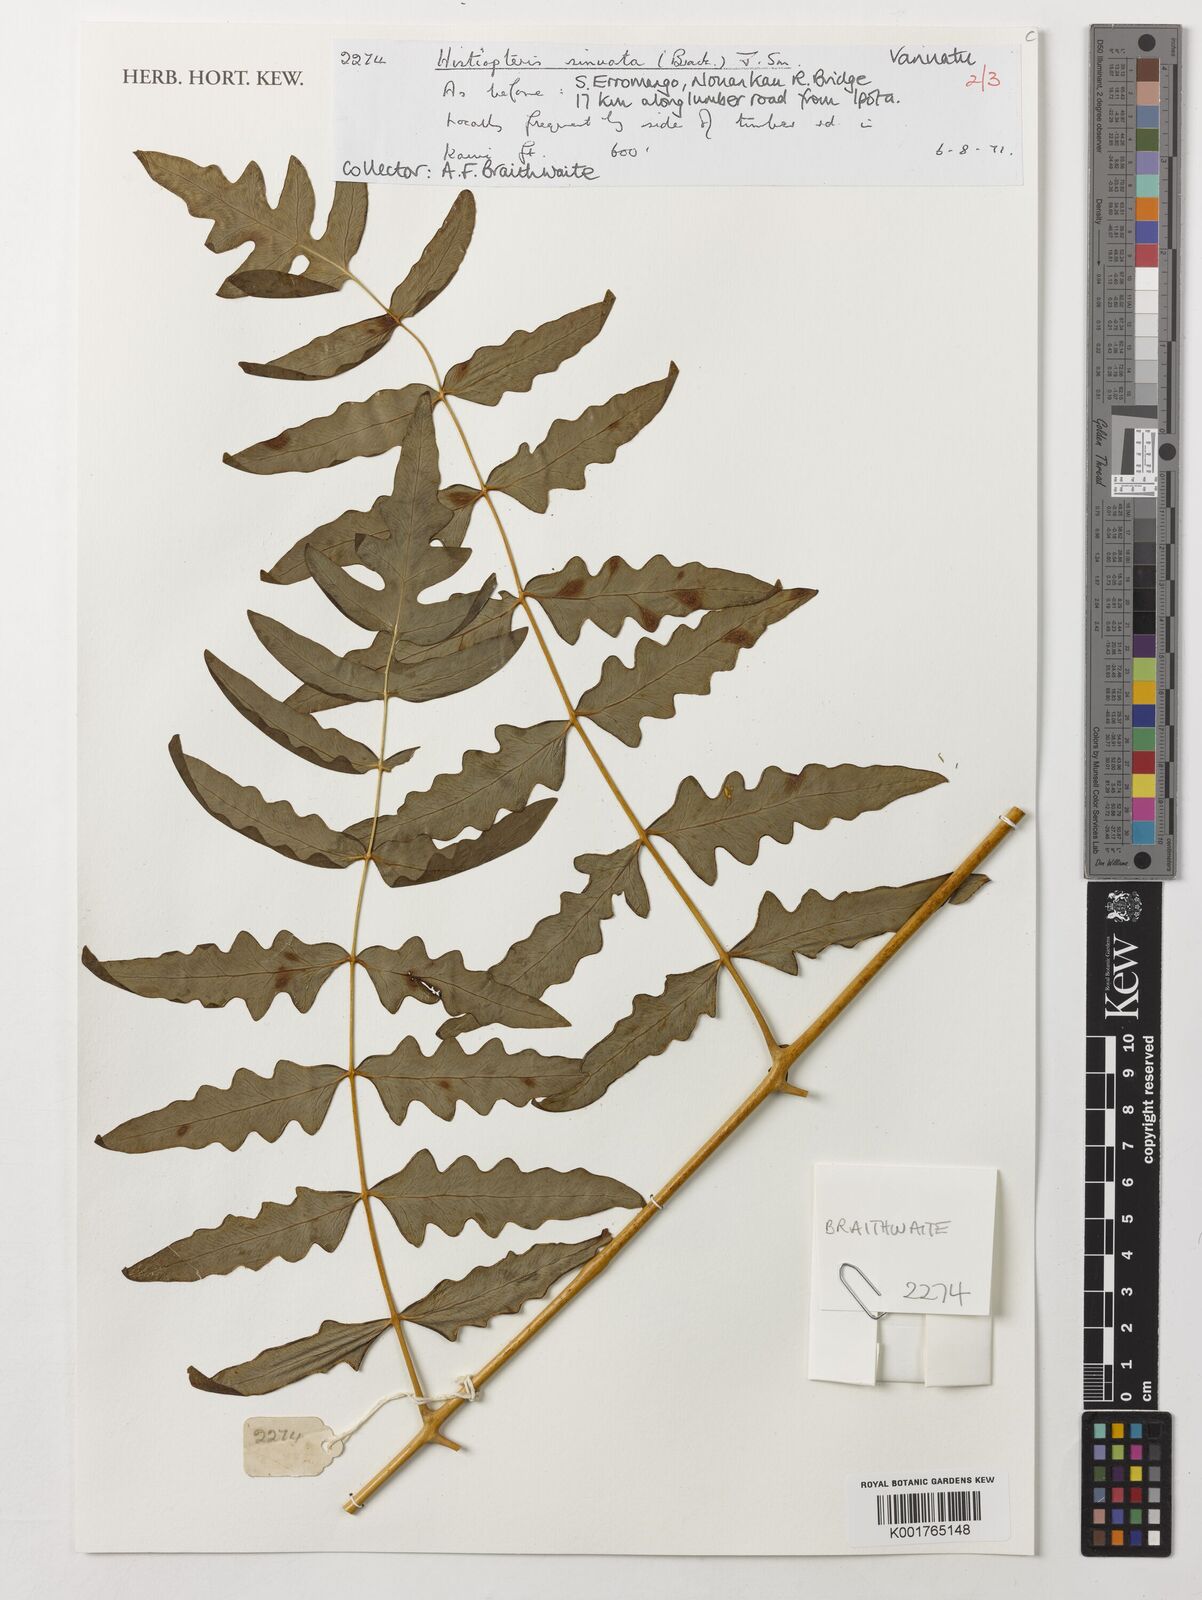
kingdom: Plantae
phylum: Tracheophyta
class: Polypodiopsida
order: Polypodiales
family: Dennstaedtiaceae
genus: Histiopteris
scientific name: Histiopteris incisa
